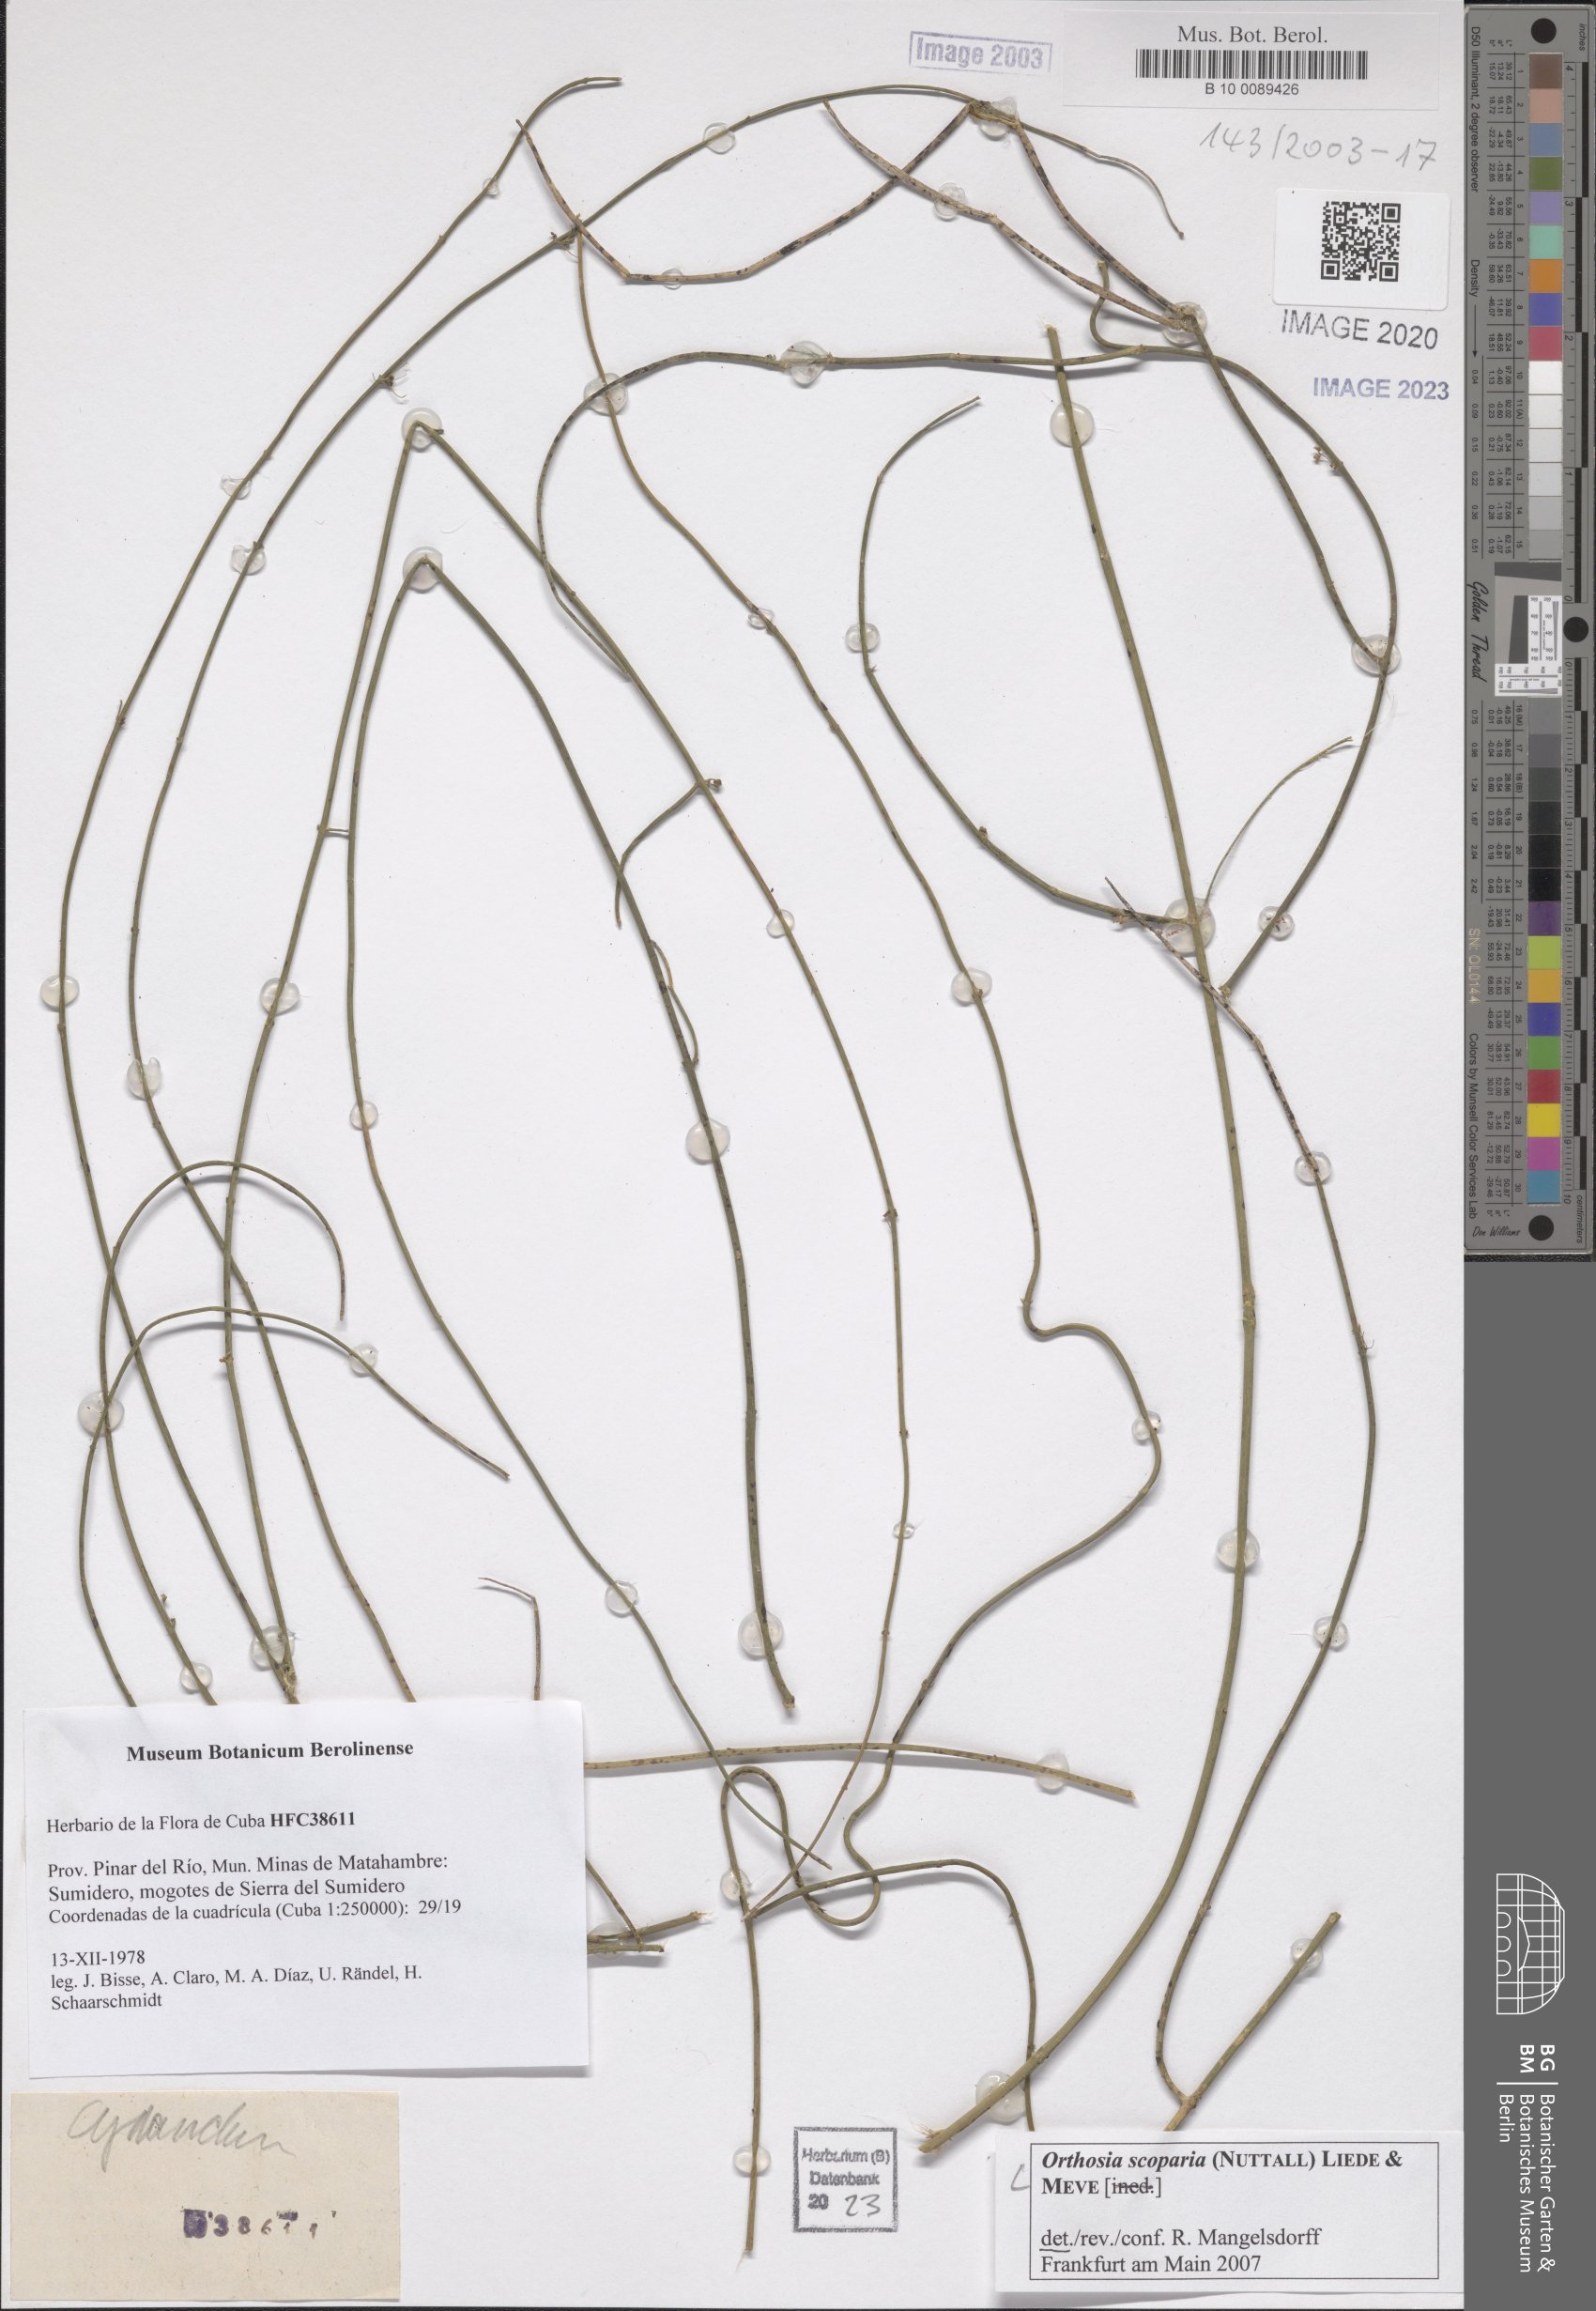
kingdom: Plantae
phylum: Tracheophyta
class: Magnoliopsida
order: Gentianales
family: Apocynaceae
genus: Cynanchum
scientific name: Cynanchum
